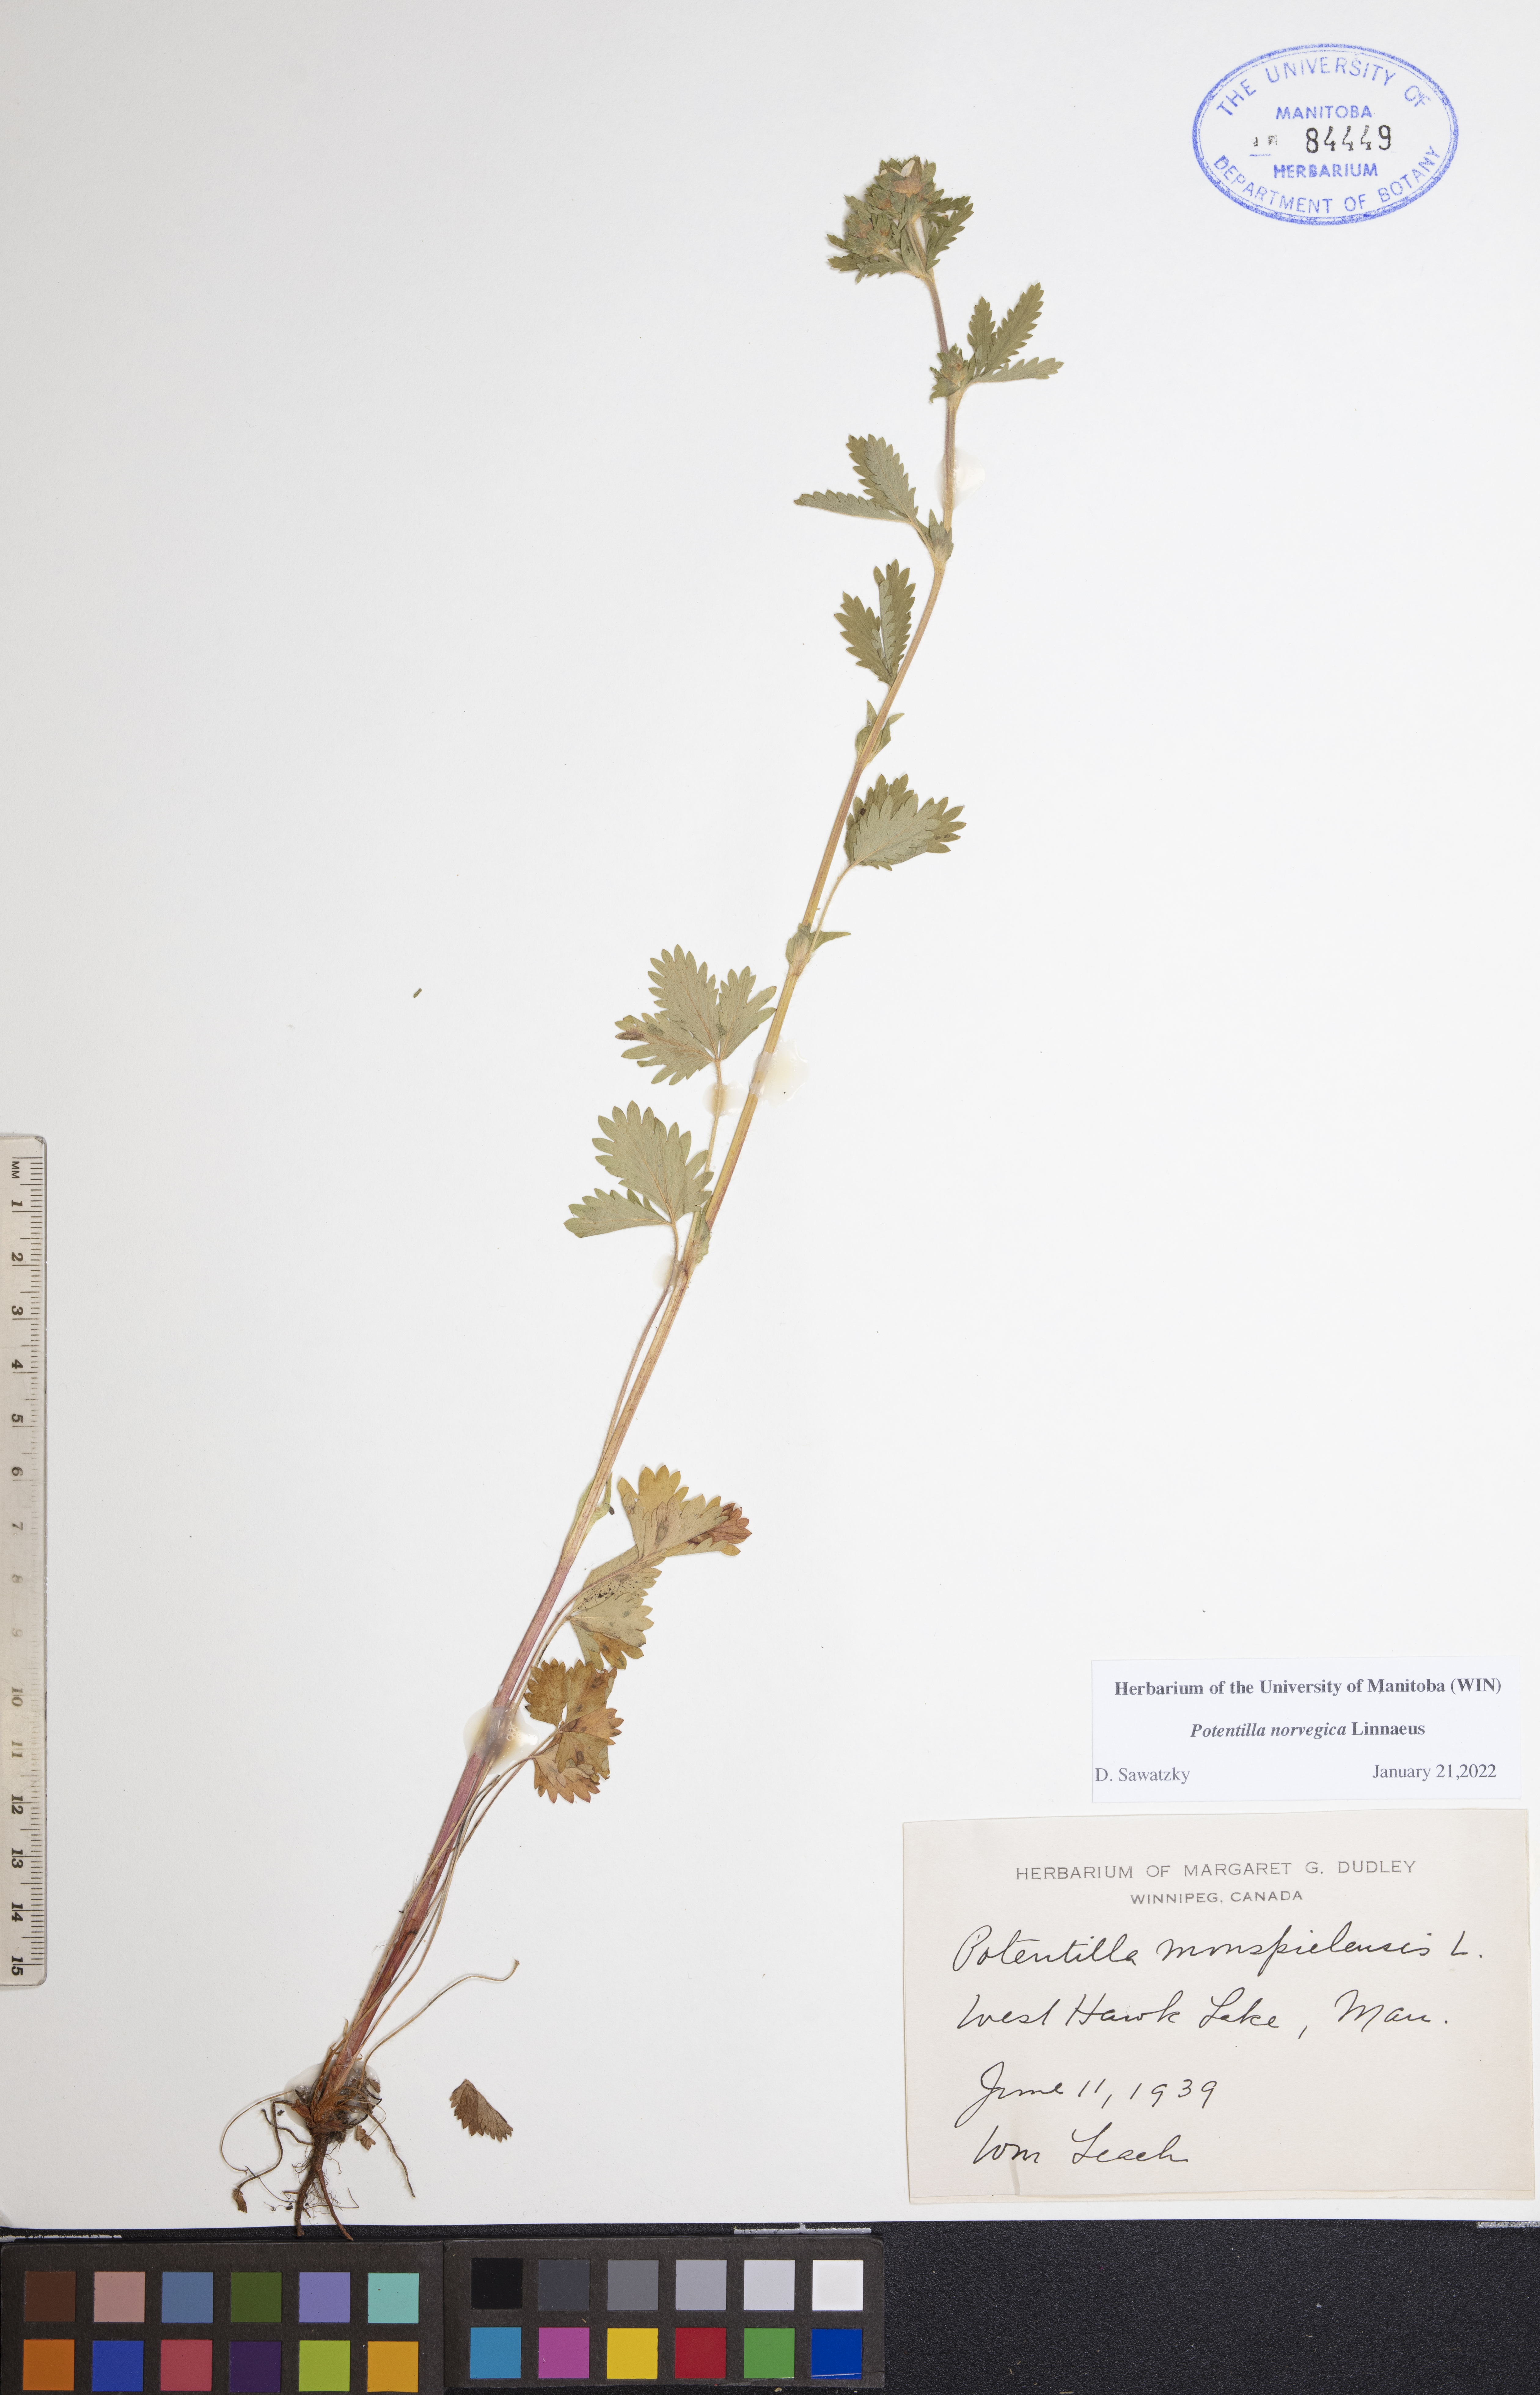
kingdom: Plantae
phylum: Tracheophyta
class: Magnoliopsida
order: Rosales
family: Rosaceae
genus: Potentilla
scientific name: Potentilla norvegica
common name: Ternate-leaved cinquefoil
